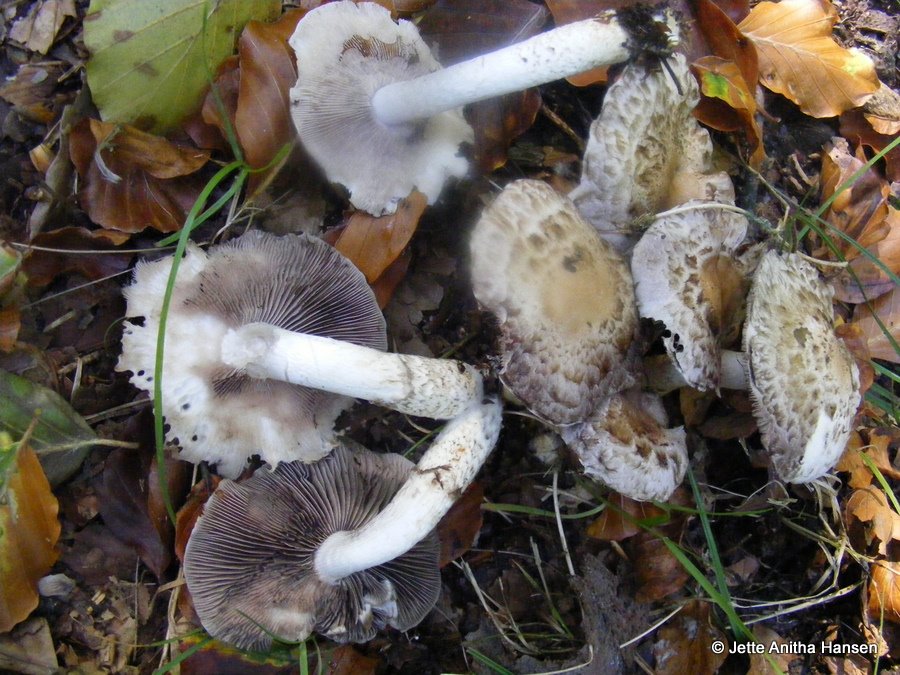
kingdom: Fungi
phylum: Basidiomycota
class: Agaricomycetes
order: Agaricales
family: Psathyrellaceae
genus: Psathyrella
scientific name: Psathyrella cotonea
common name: skællet mørkhat
